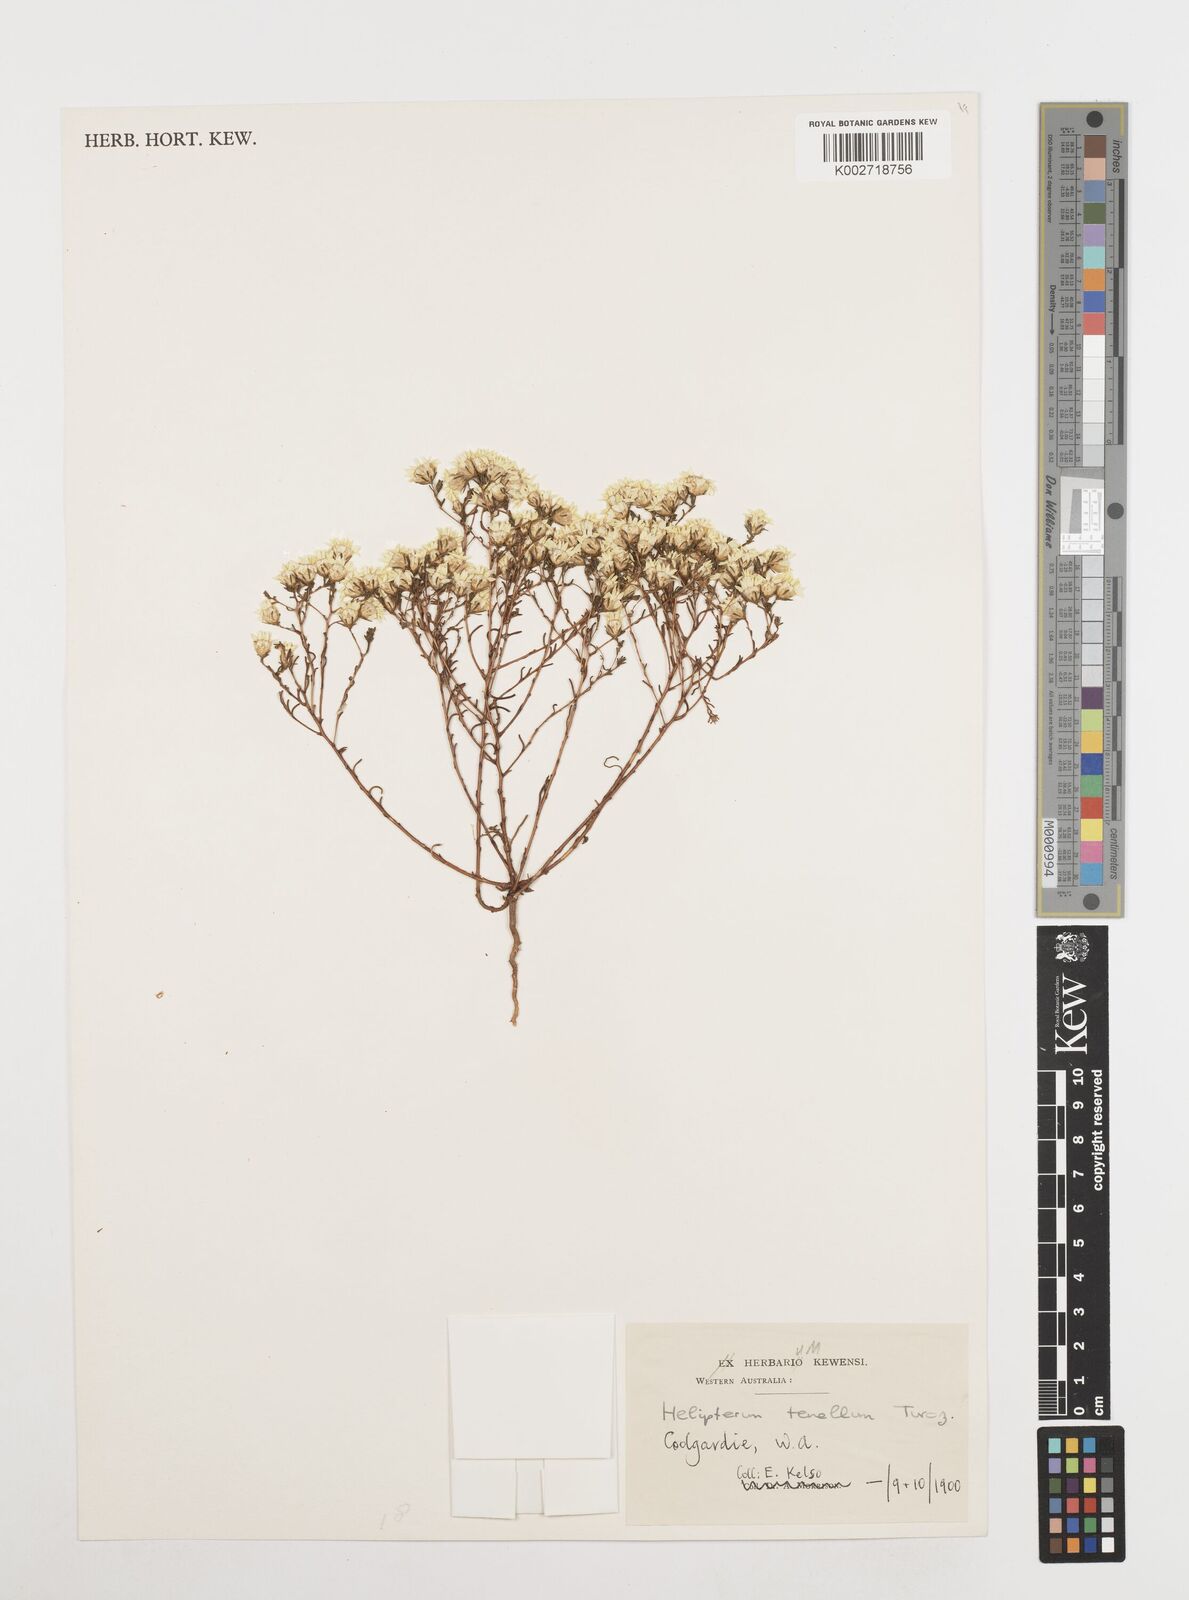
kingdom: Plantae
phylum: Tracheophyta
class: Magnoliopsida
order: Asterales
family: Asteraceae
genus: Erymophyllum
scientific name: Erymophyllum tenellum
